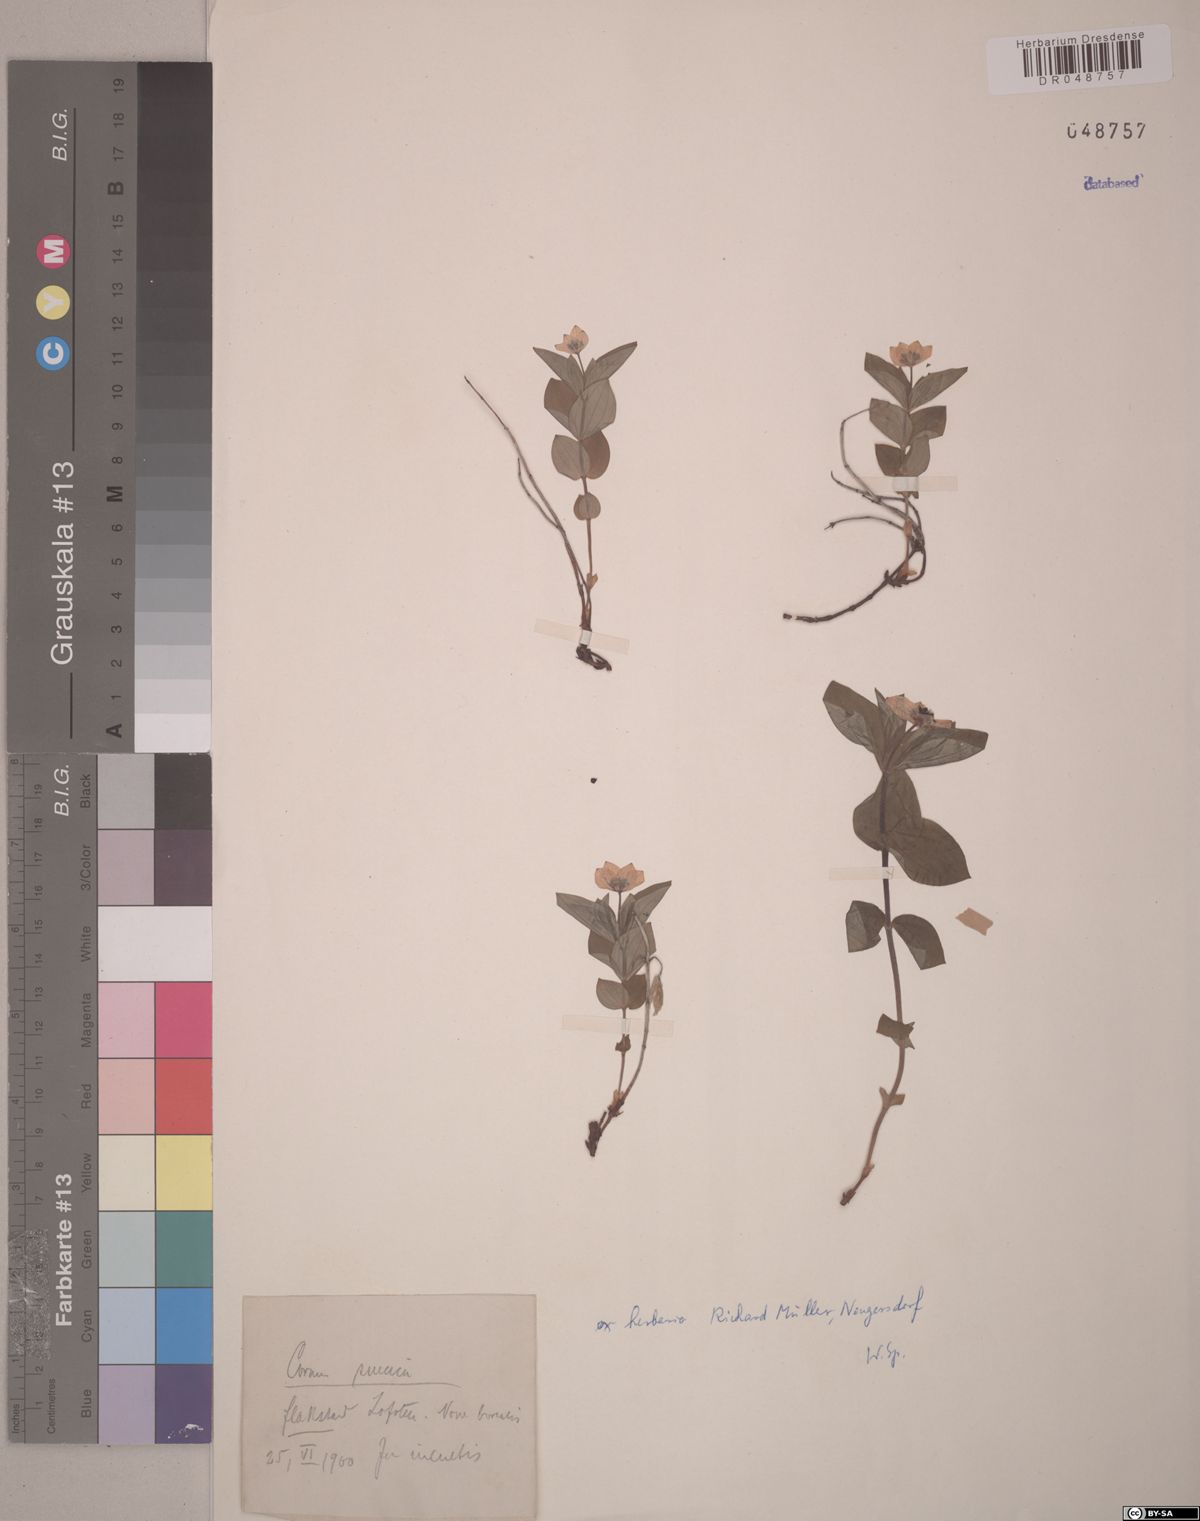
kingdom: Plantae
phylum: Tracheophyta
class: Magnoliopsida
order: Cornales
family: Cornaceae
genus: Cornus
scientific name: Cornus suecica
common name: Dwarf cornel
